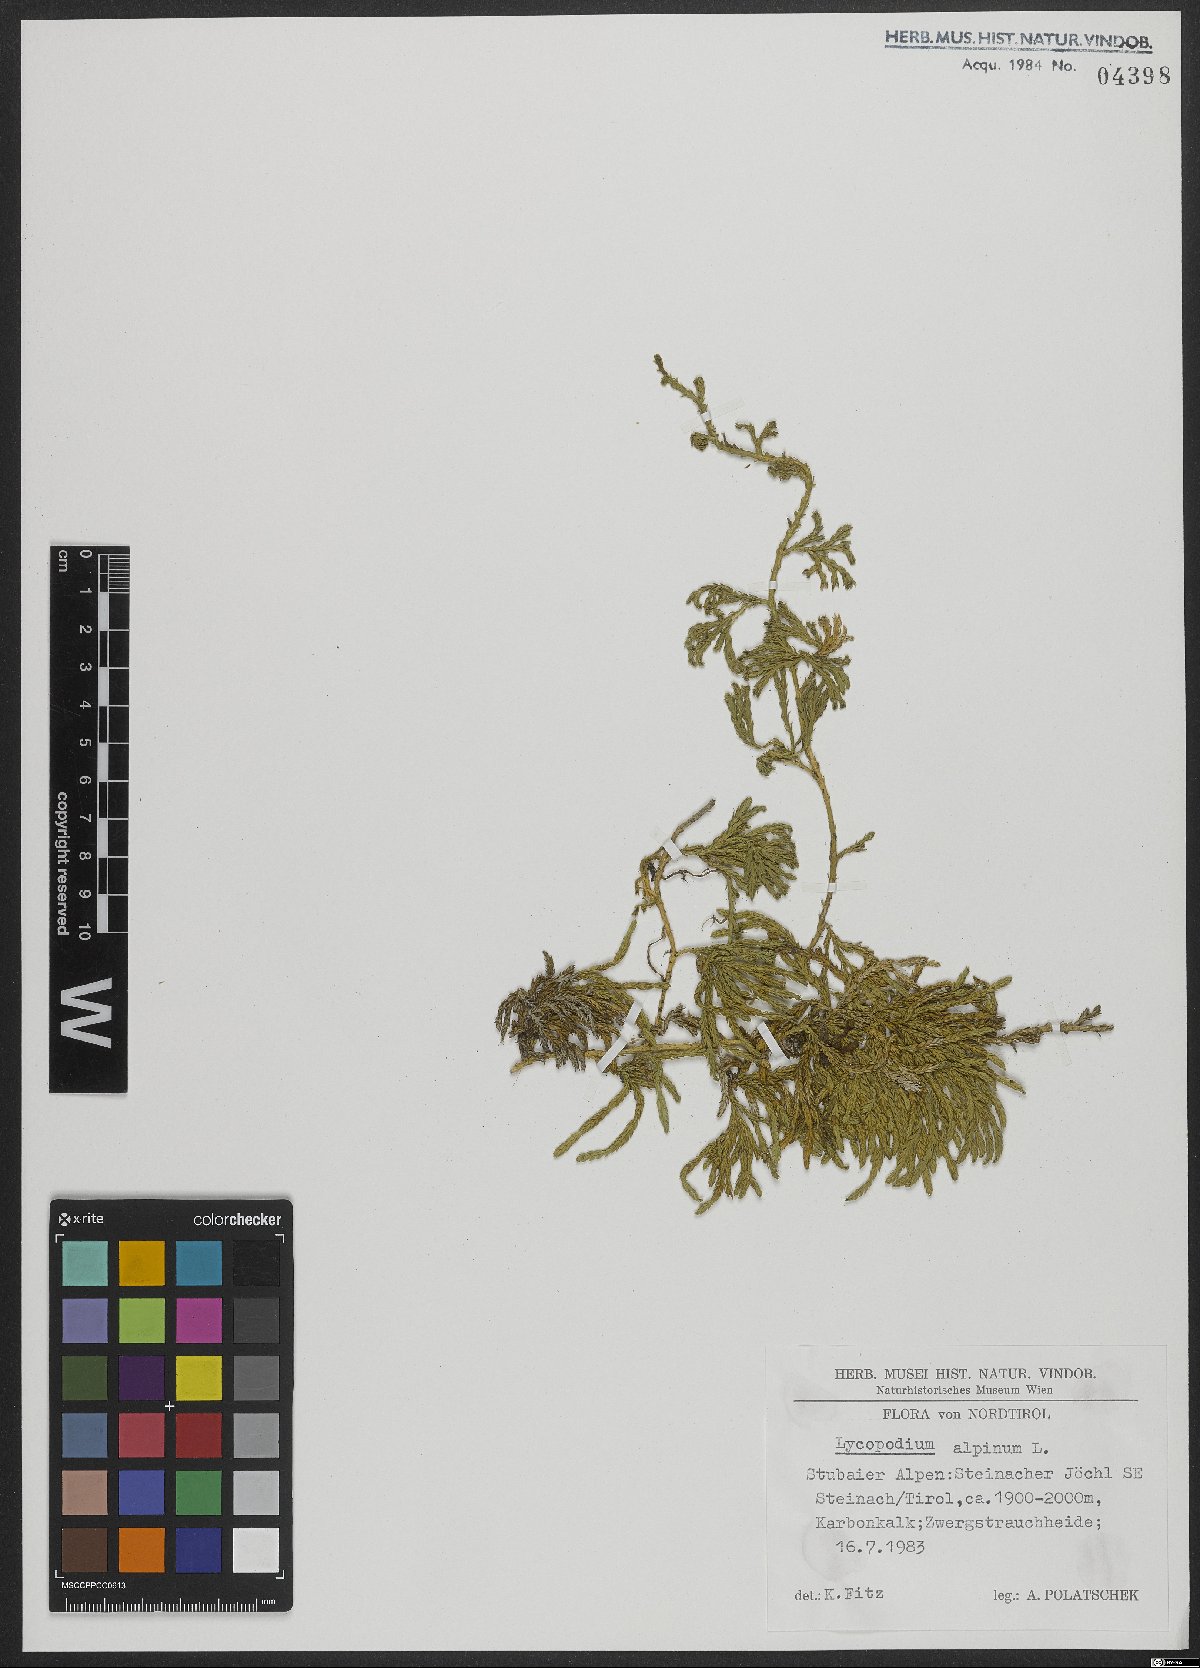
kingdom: Plantae
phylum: Tracheophyta
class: Lycopodiopsida
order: Lycopodiales
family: Lycopodiaceae
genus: Diphasiastrum
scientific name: Diphasiastrum alpinum
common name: Alpine clubmoss
